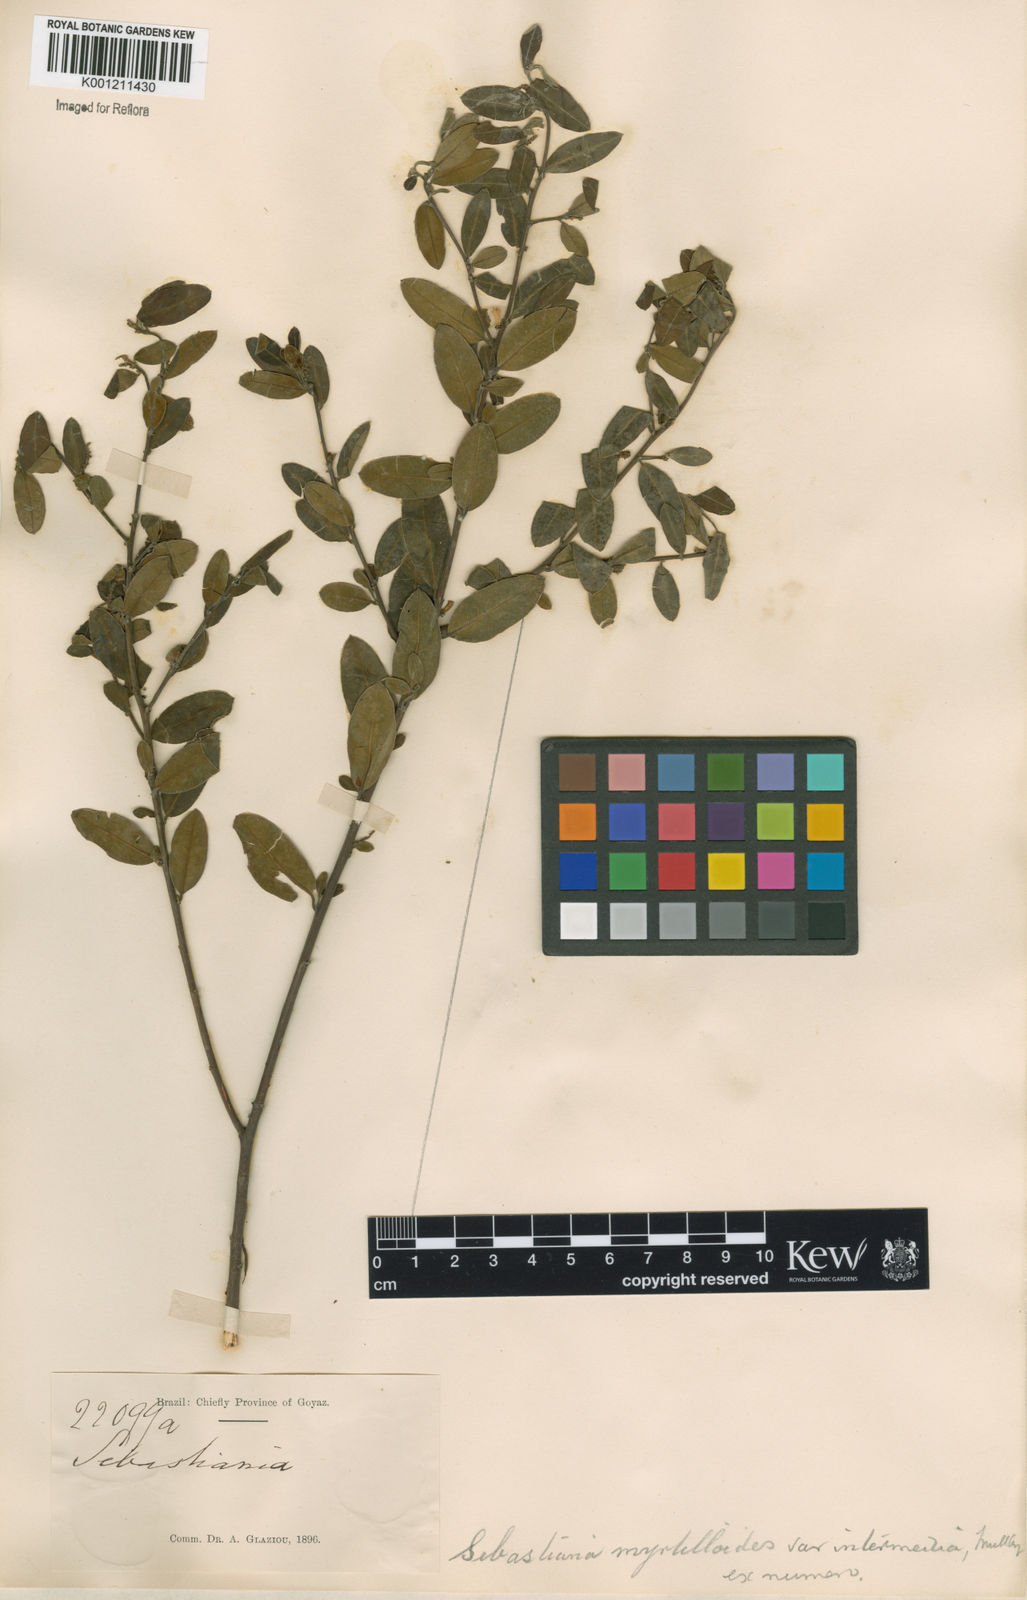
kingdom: Plantae
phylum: Tracheophyta
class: Magnoliopsida
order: Malpighiales
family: Euphorbiaceae
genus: Microstachys
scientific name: Microstachys
